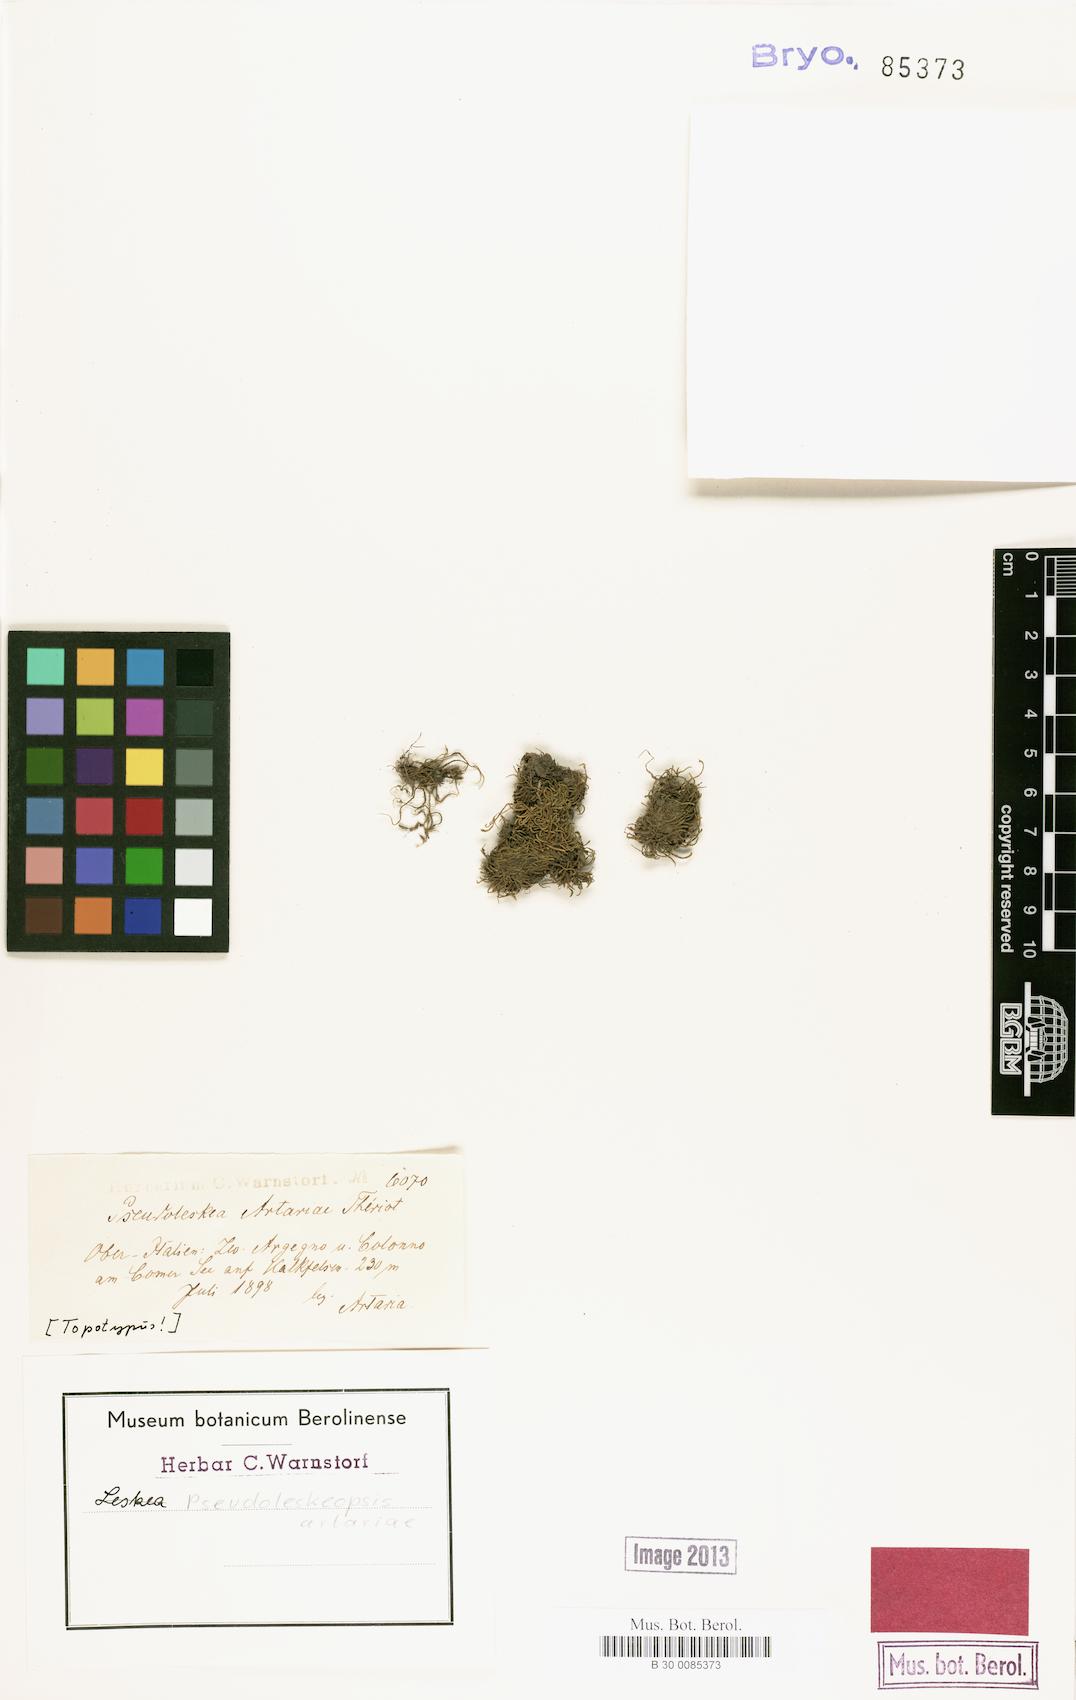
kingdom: Plantae
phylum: Bryophyta
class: Bryopsida
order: Hypnales
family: Leskeaceae
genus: Pseudoleskeopsis
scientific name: Pseudoleskeopsis artariae
